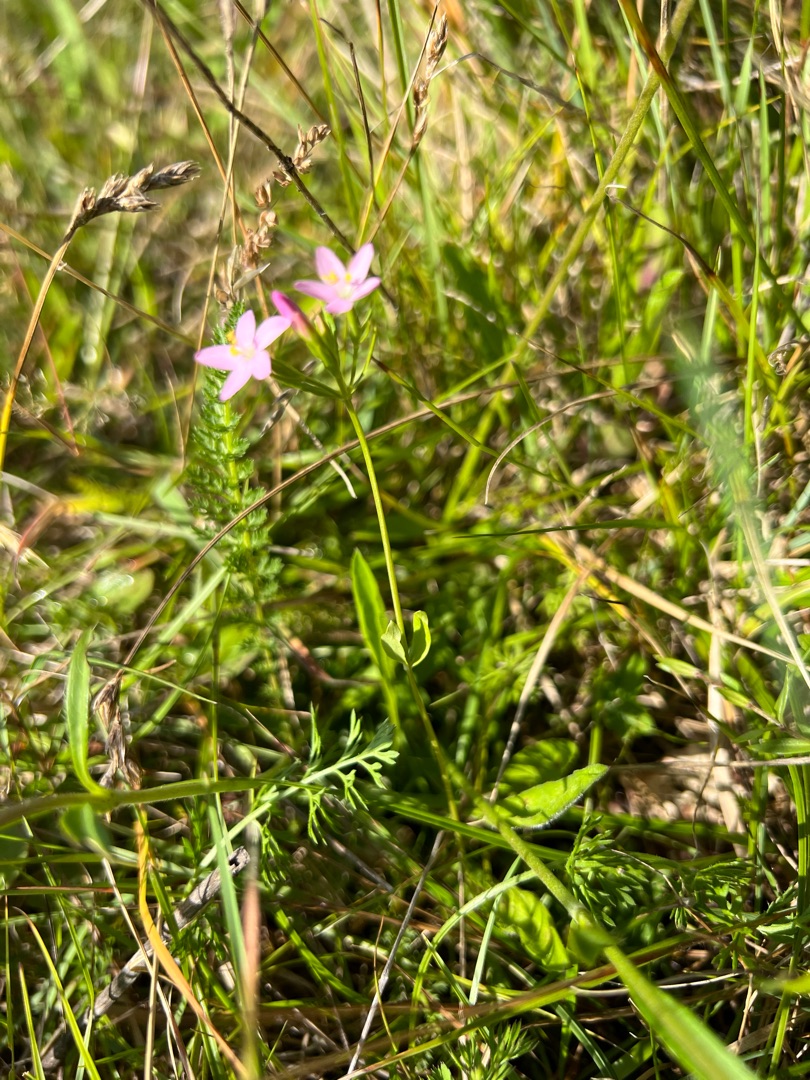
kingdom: Plantae
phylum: Tracheophyta
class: Magnoliopsida
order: Gentianales
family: Gentianaceae
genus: Centaurium
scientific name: Centaurium
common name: Tusindgyldenslægten
